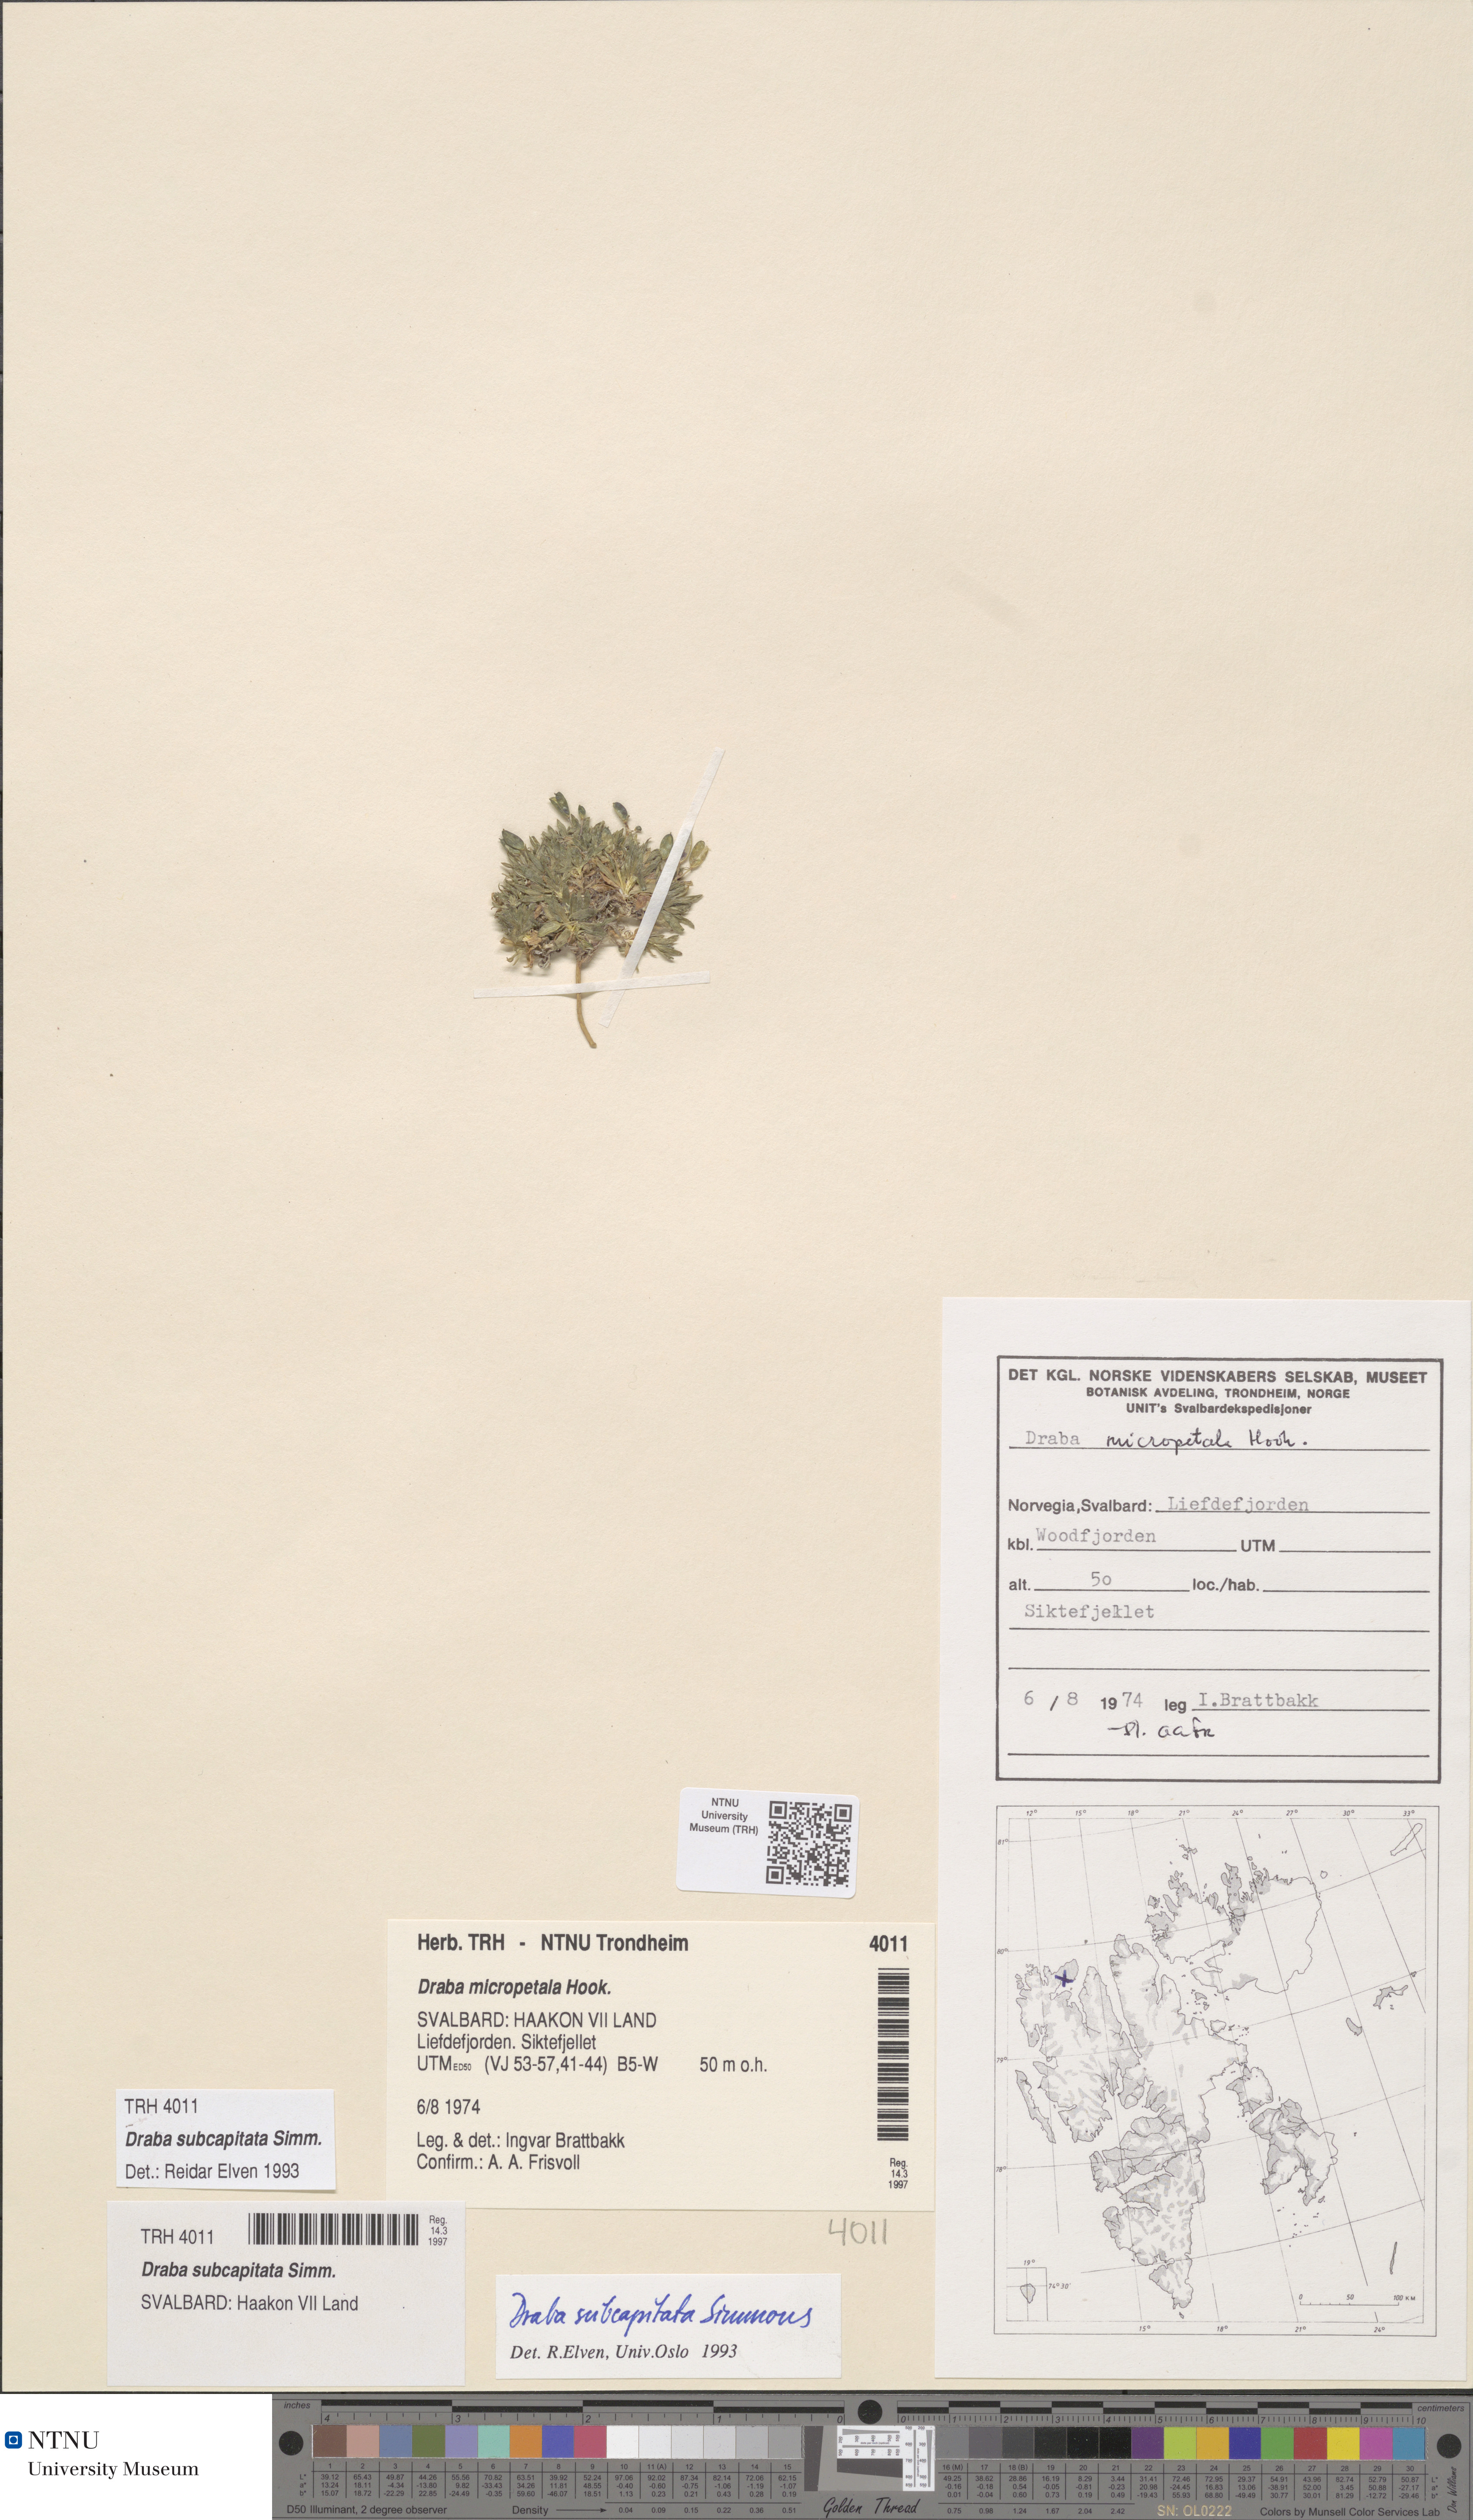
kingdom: Plantae
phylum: Tracheophyta
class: Magnoliopsida
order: Brassicales
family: Brassicaceae
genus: Draba
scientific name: Draba subcapitata
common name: Ellesmere island draba
